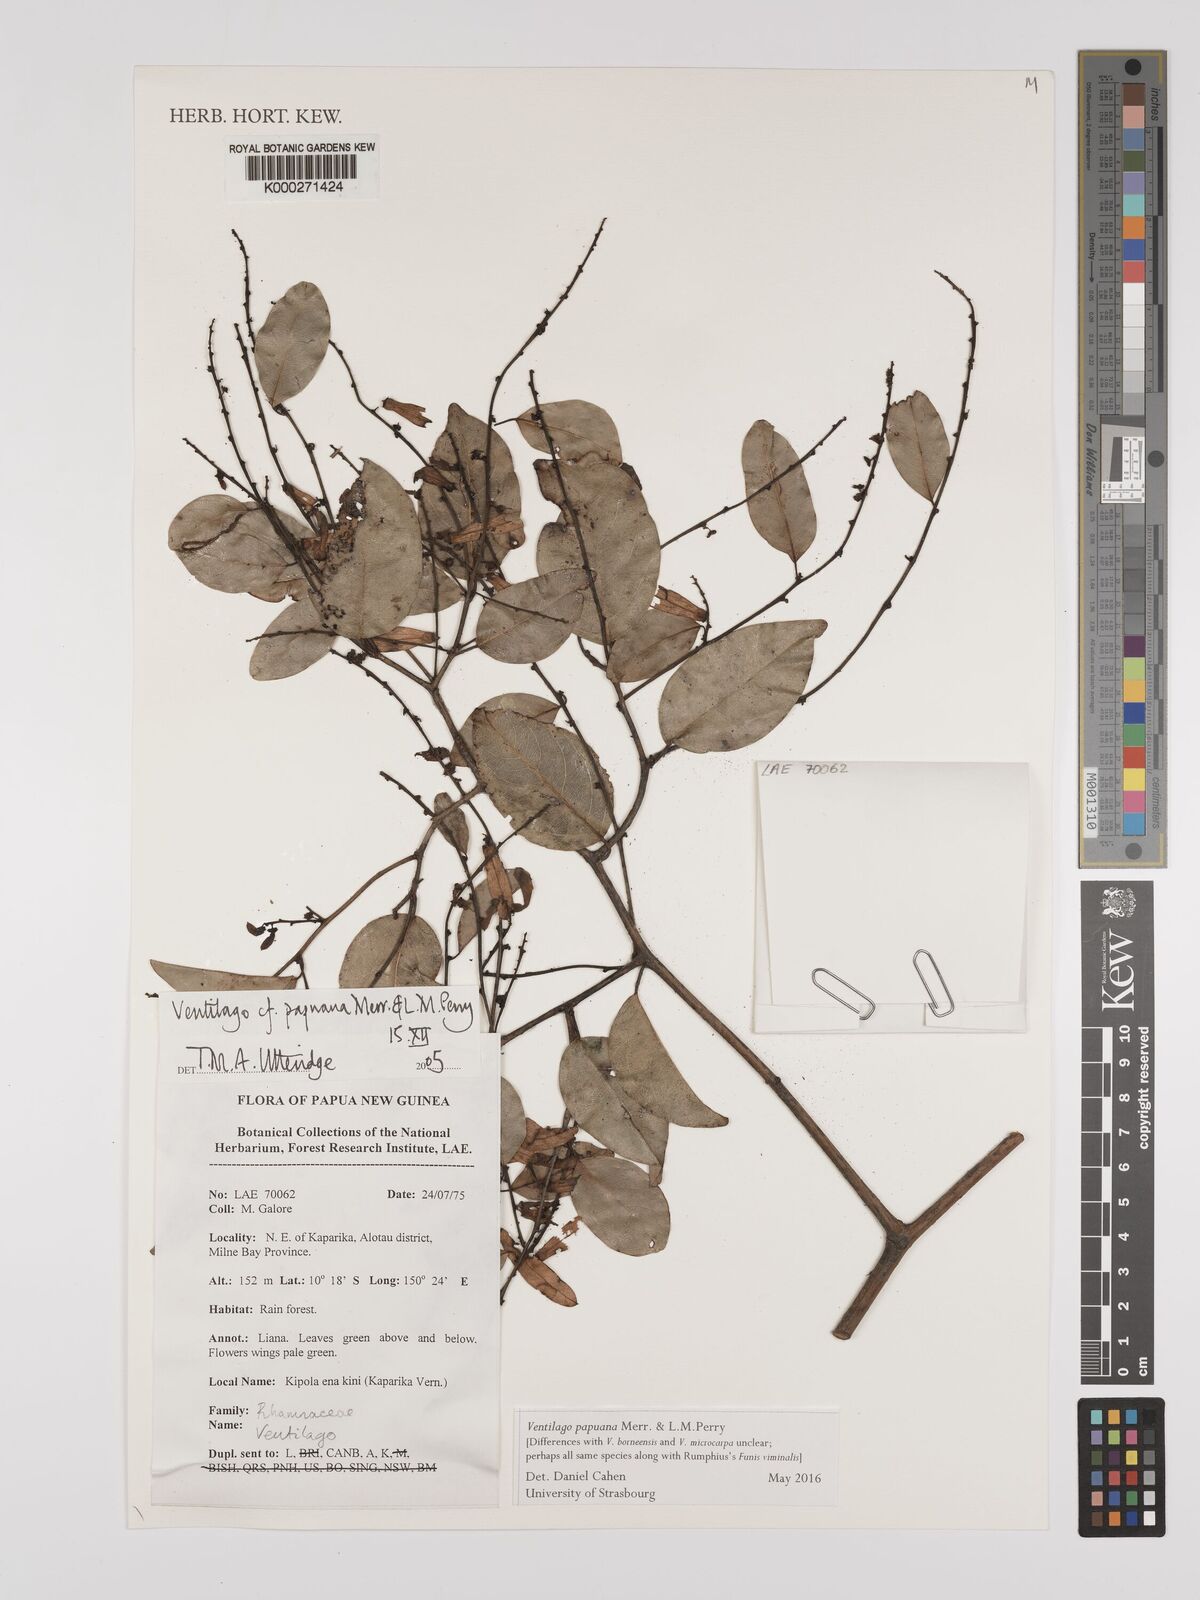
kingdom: Plantae
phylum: Tracheophyta
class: Magnoliopsida
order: Rosales
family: Rhamnaceae
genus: Ventilago
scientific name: Ventilago papuana
